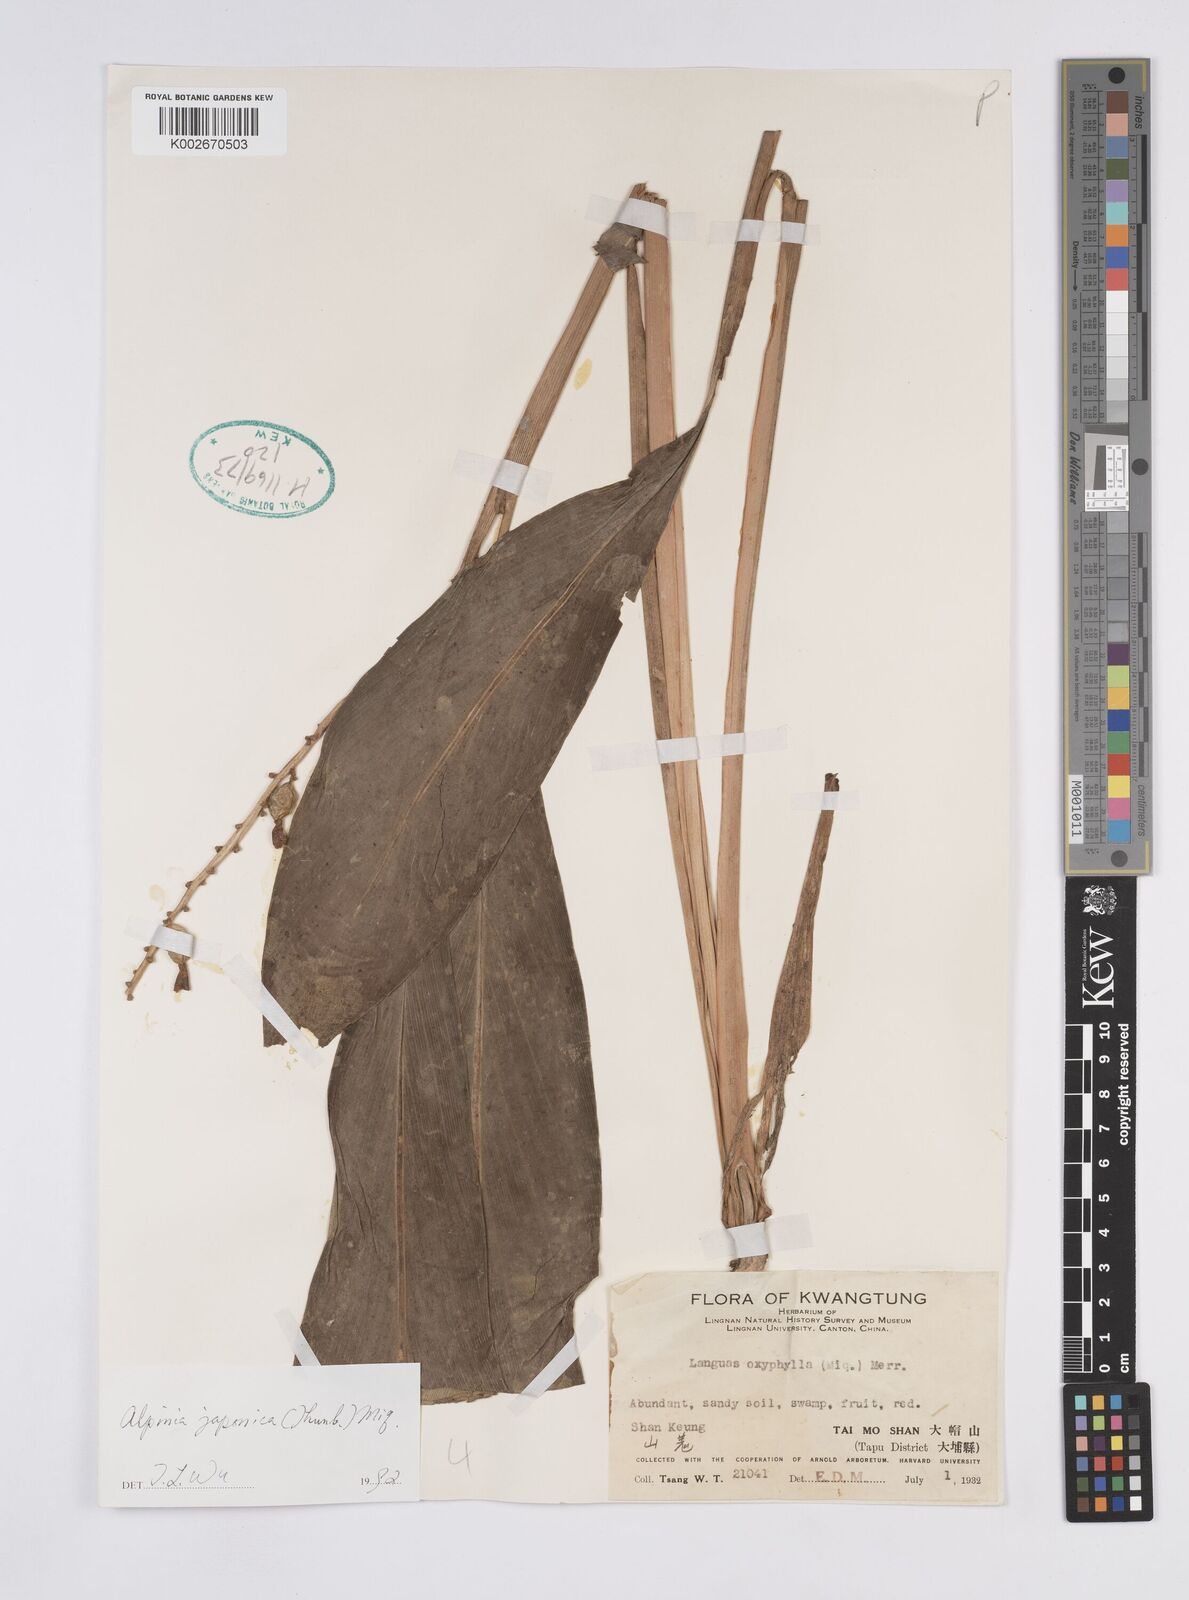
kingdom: Plantae
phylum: Tracheophyta
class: Liliopsida
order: Zingiberales
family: Zingiberaceae
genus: Alpinia
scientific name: Alpinia japonica
